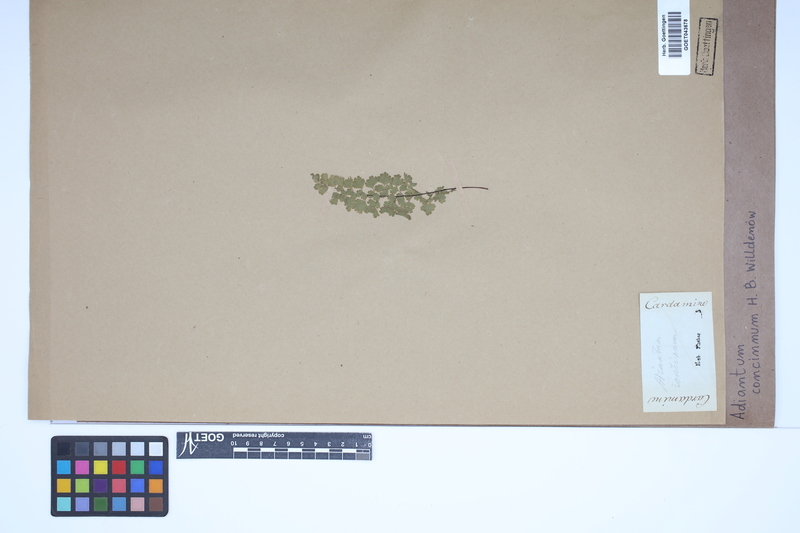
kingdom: Plantae
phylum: Tracheophyta
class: Polypodiopsida
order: Polypodiales
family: Pteridaceae
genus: Adiantum
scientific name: Adiantum concinnum
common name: Brittle maidenhair fern
